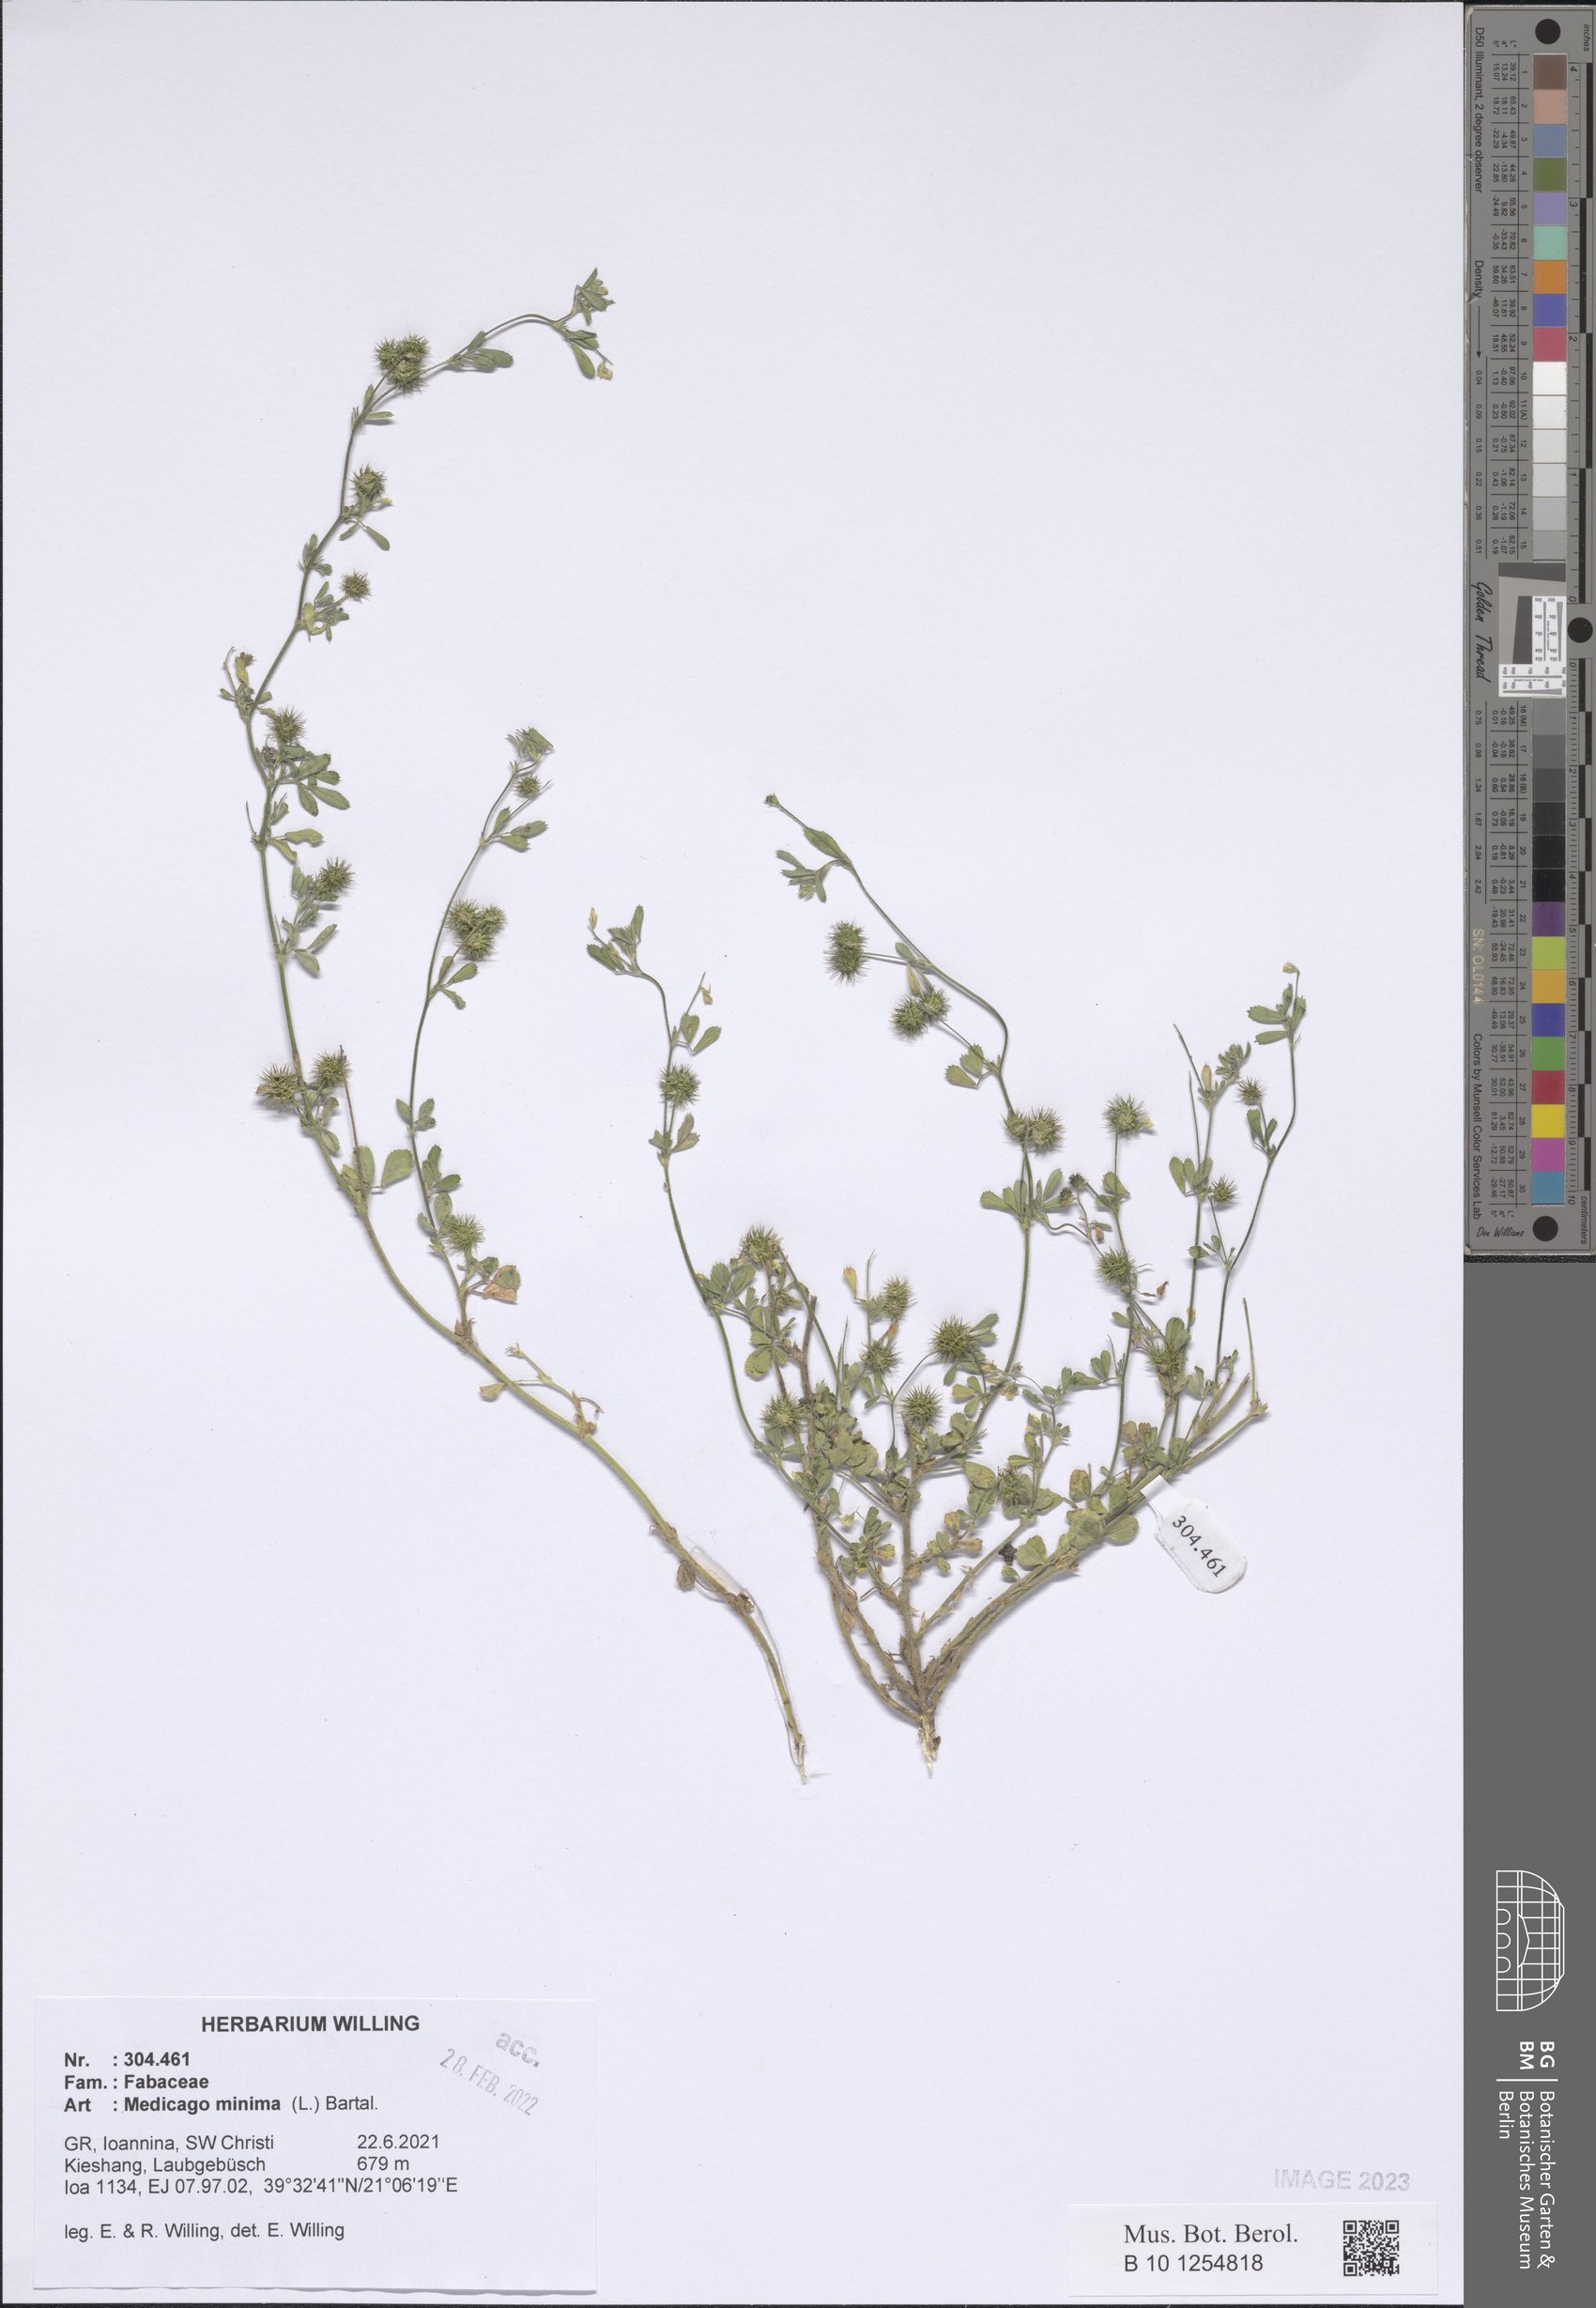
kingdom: Plantae
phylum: Tracheophyta
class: Magnoliopsida
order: Fabales
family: Fabaceae
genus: Medicago
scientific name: Medicago minima
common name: Little bur-clover
